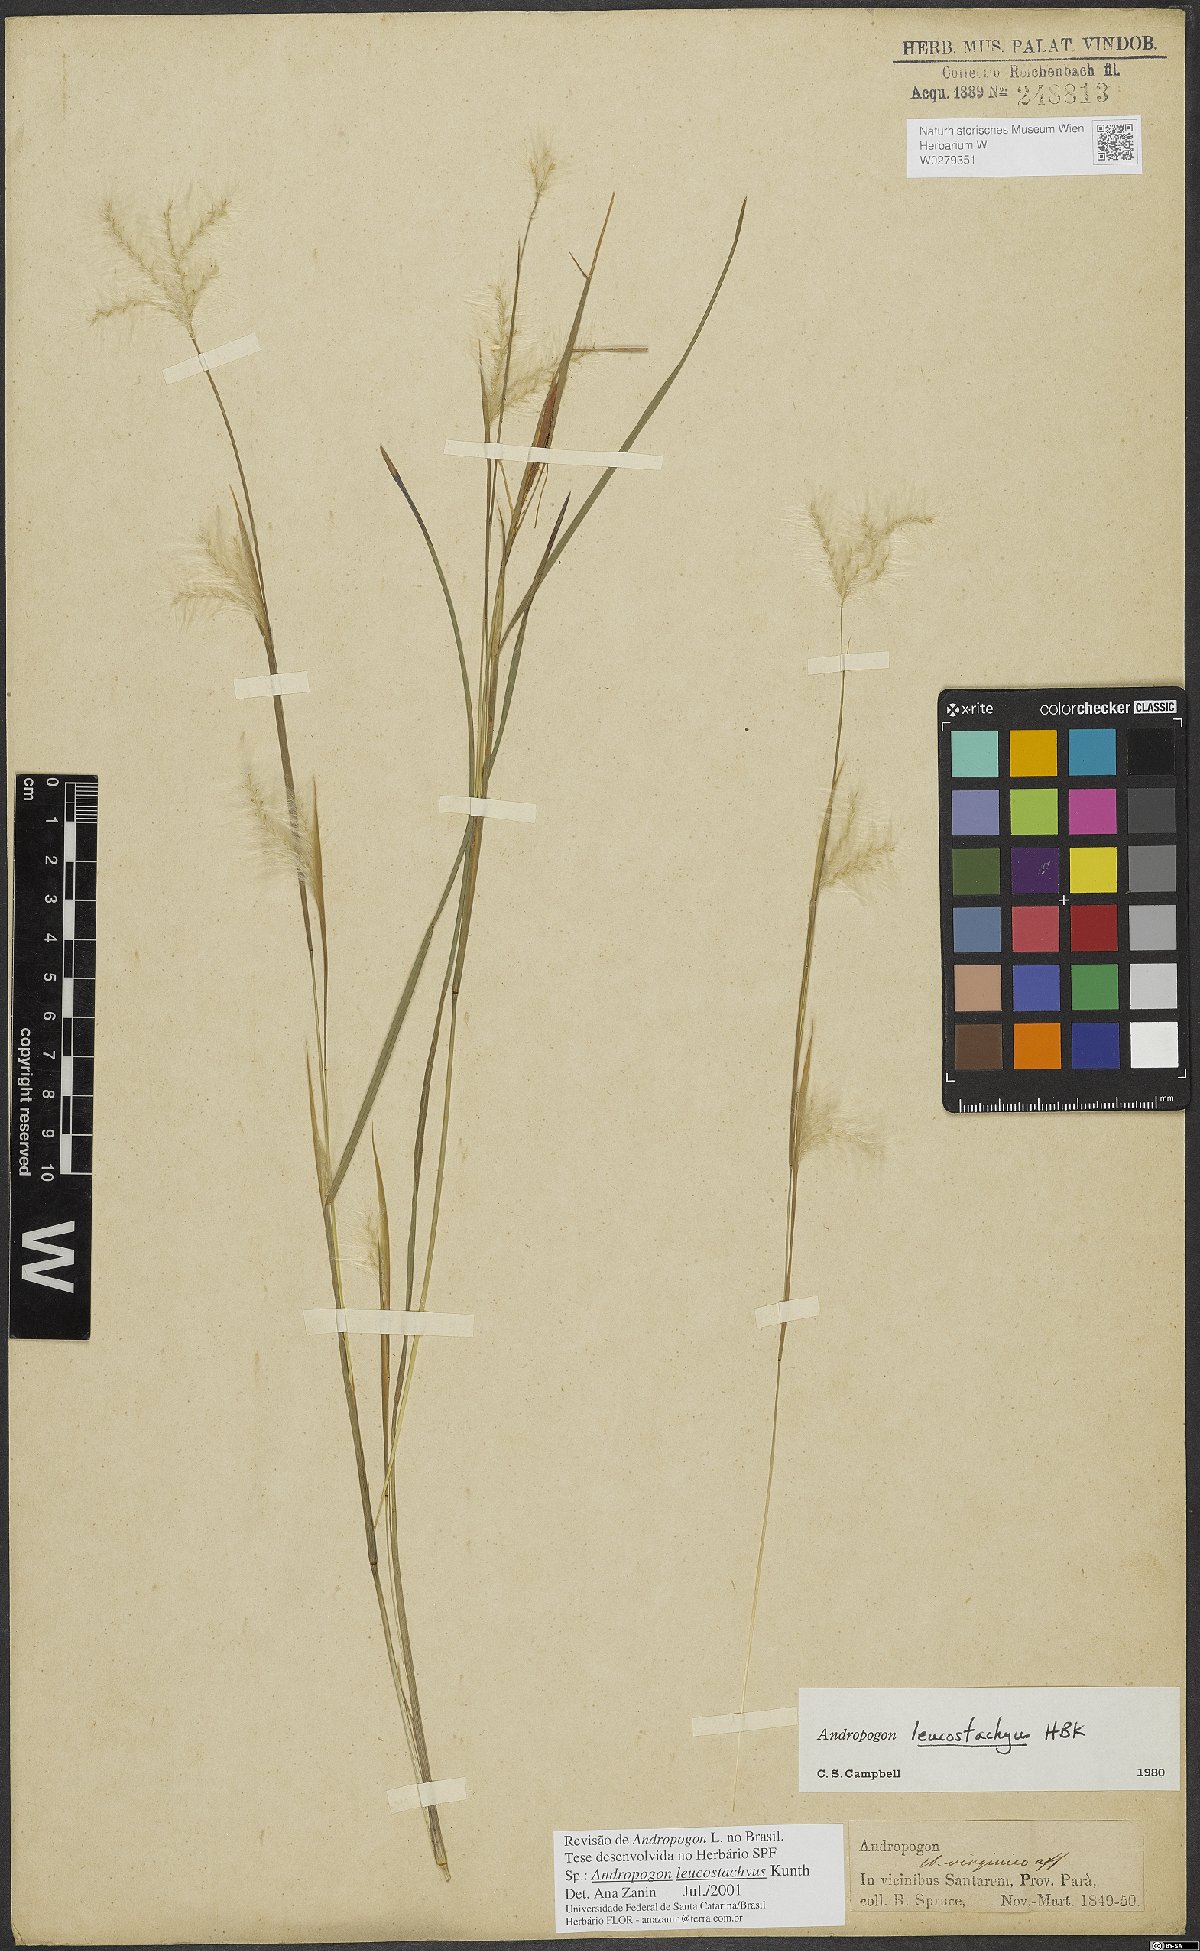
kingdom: Plantae
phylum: Tracheophyta
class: Liliopsida
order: Poales
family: Poaceae
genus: Andropogon
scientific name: Andropogon leucostachyus
